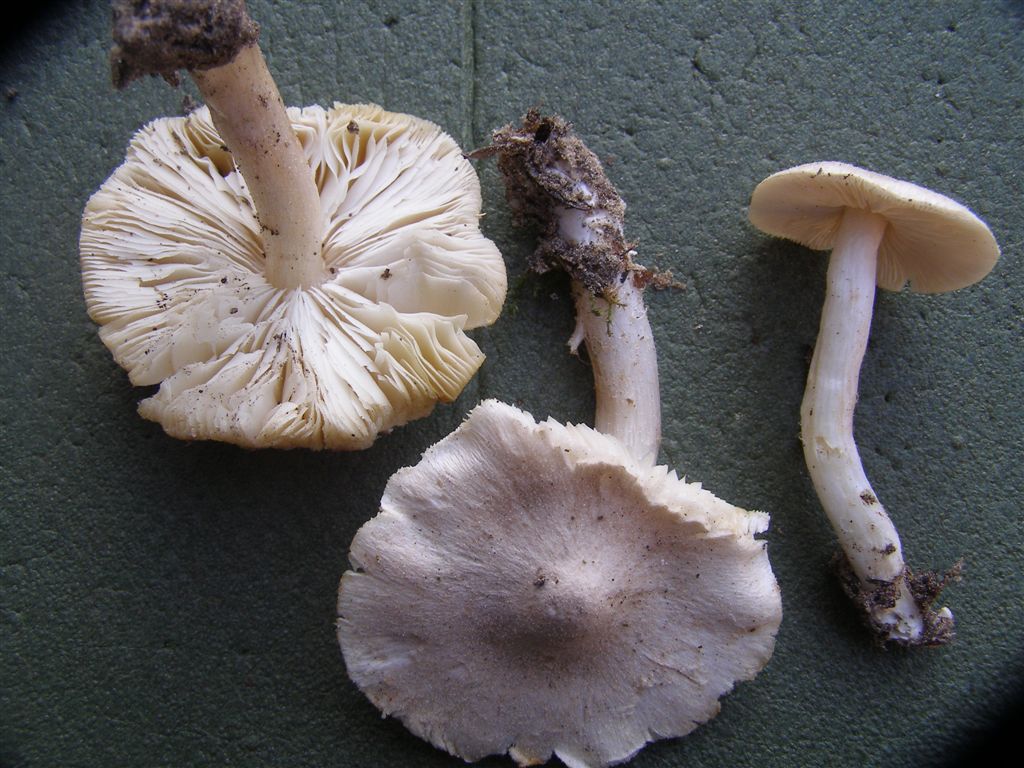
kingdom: Fungi
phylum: Basidiomycota
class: Agaricomycetes
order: Agaricales
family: Tricholomataceae
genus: Tricholoma
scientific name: Tricholoma argyraceum
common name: spids ridderhat
